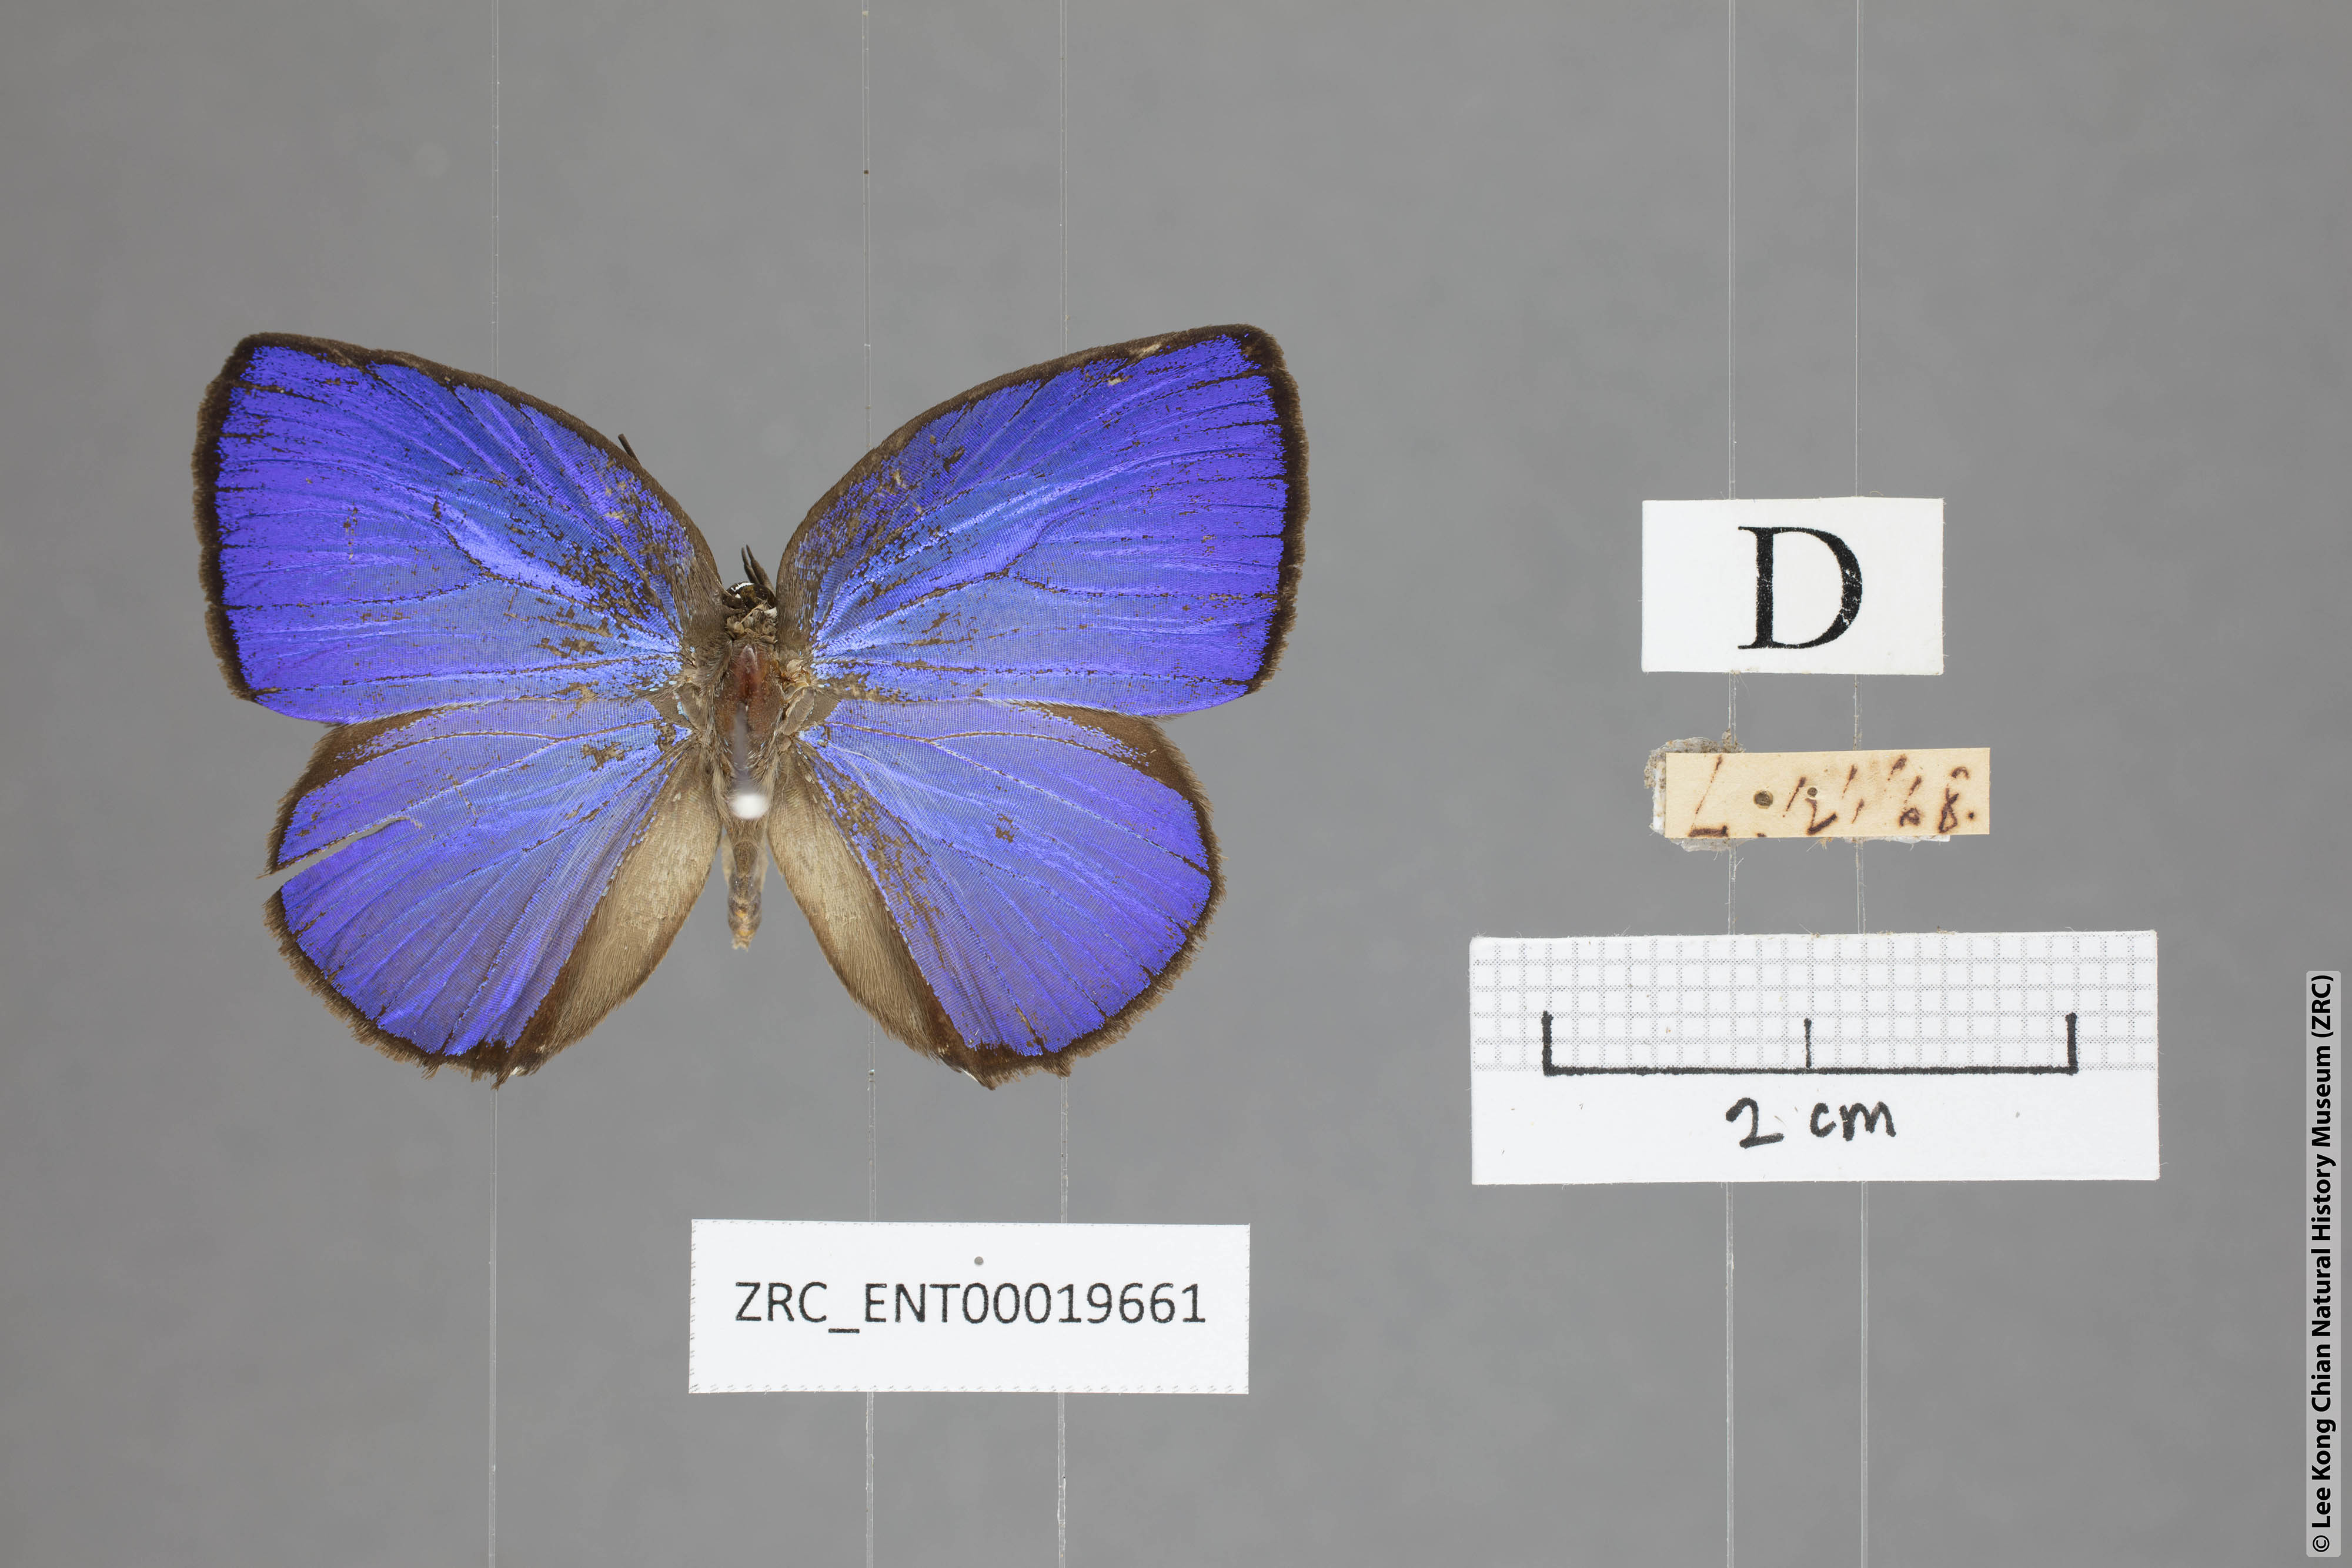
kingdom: Animalia
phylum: Arthropoda
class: Insecta
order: Lepidoptera
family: Lycaenidae
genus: Arhopala
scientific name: Arhopala moolaina
